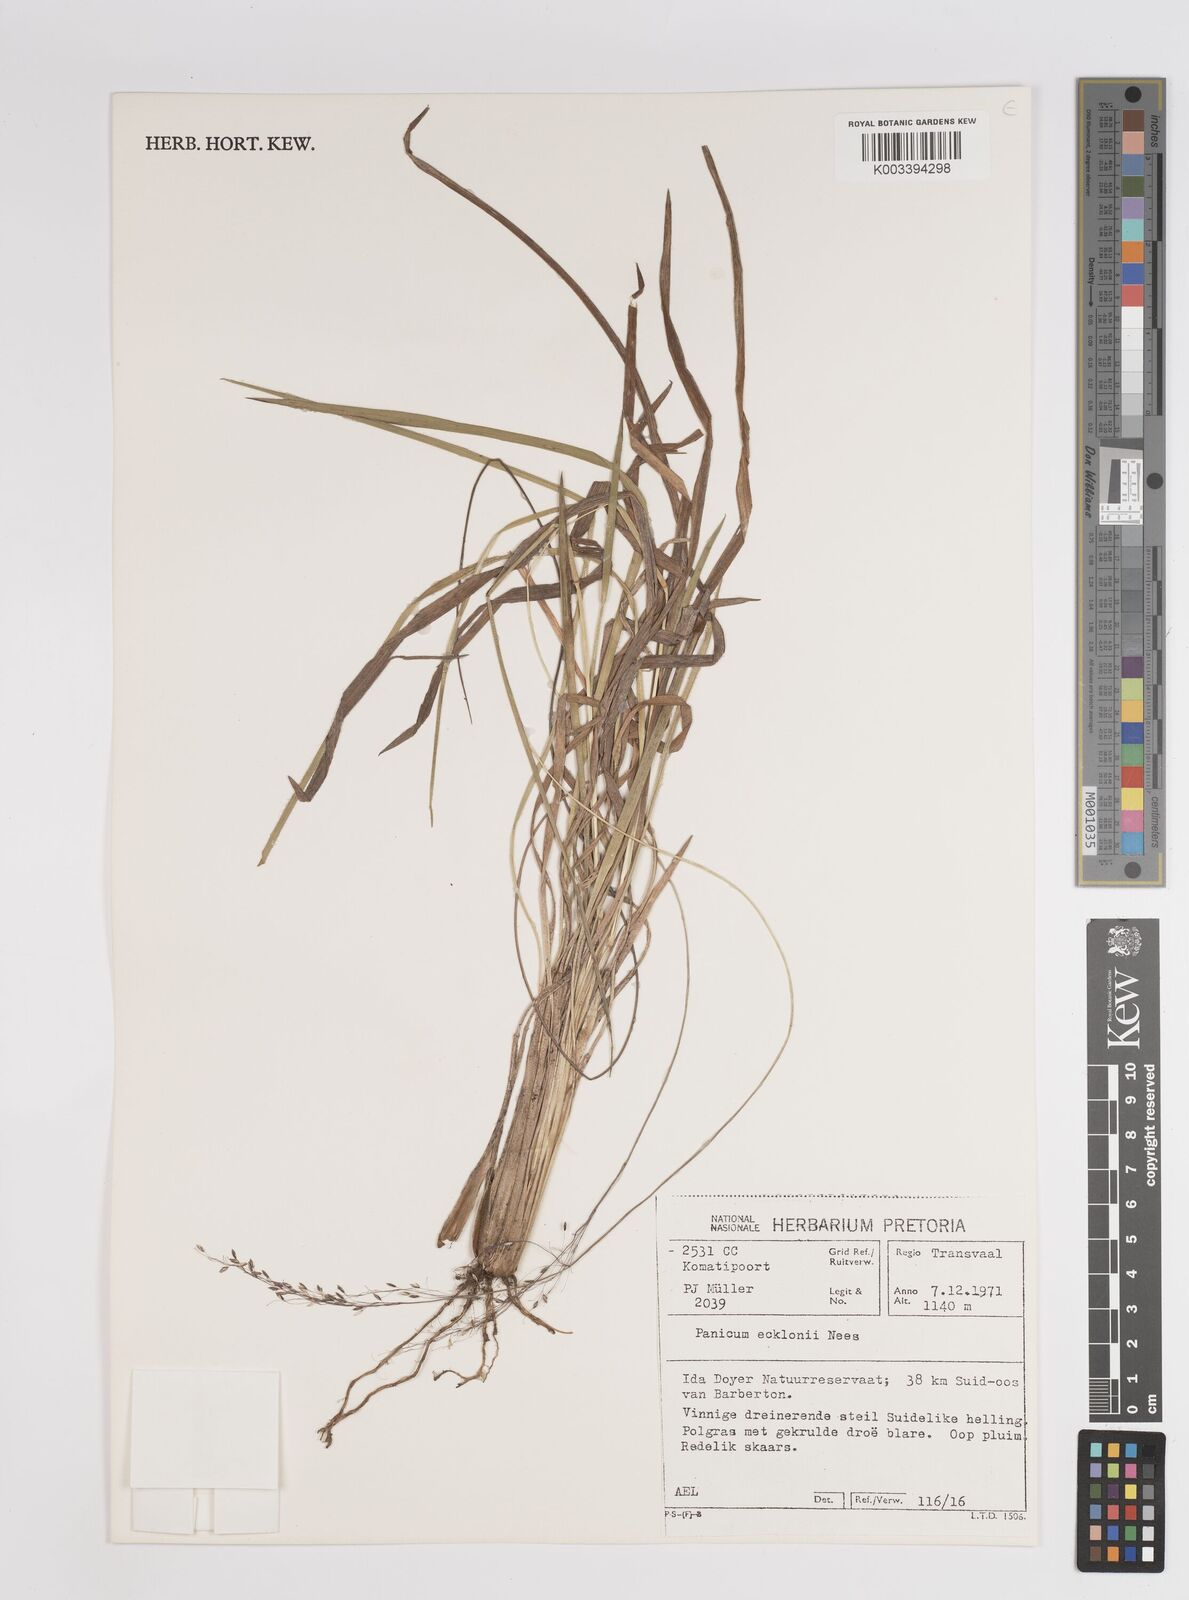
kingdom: Plantae
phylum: Tracheophyta
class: Liliopsida
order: Poales
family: Poaceae
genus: Adenochloa
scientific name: Adenochloa ecklonii
